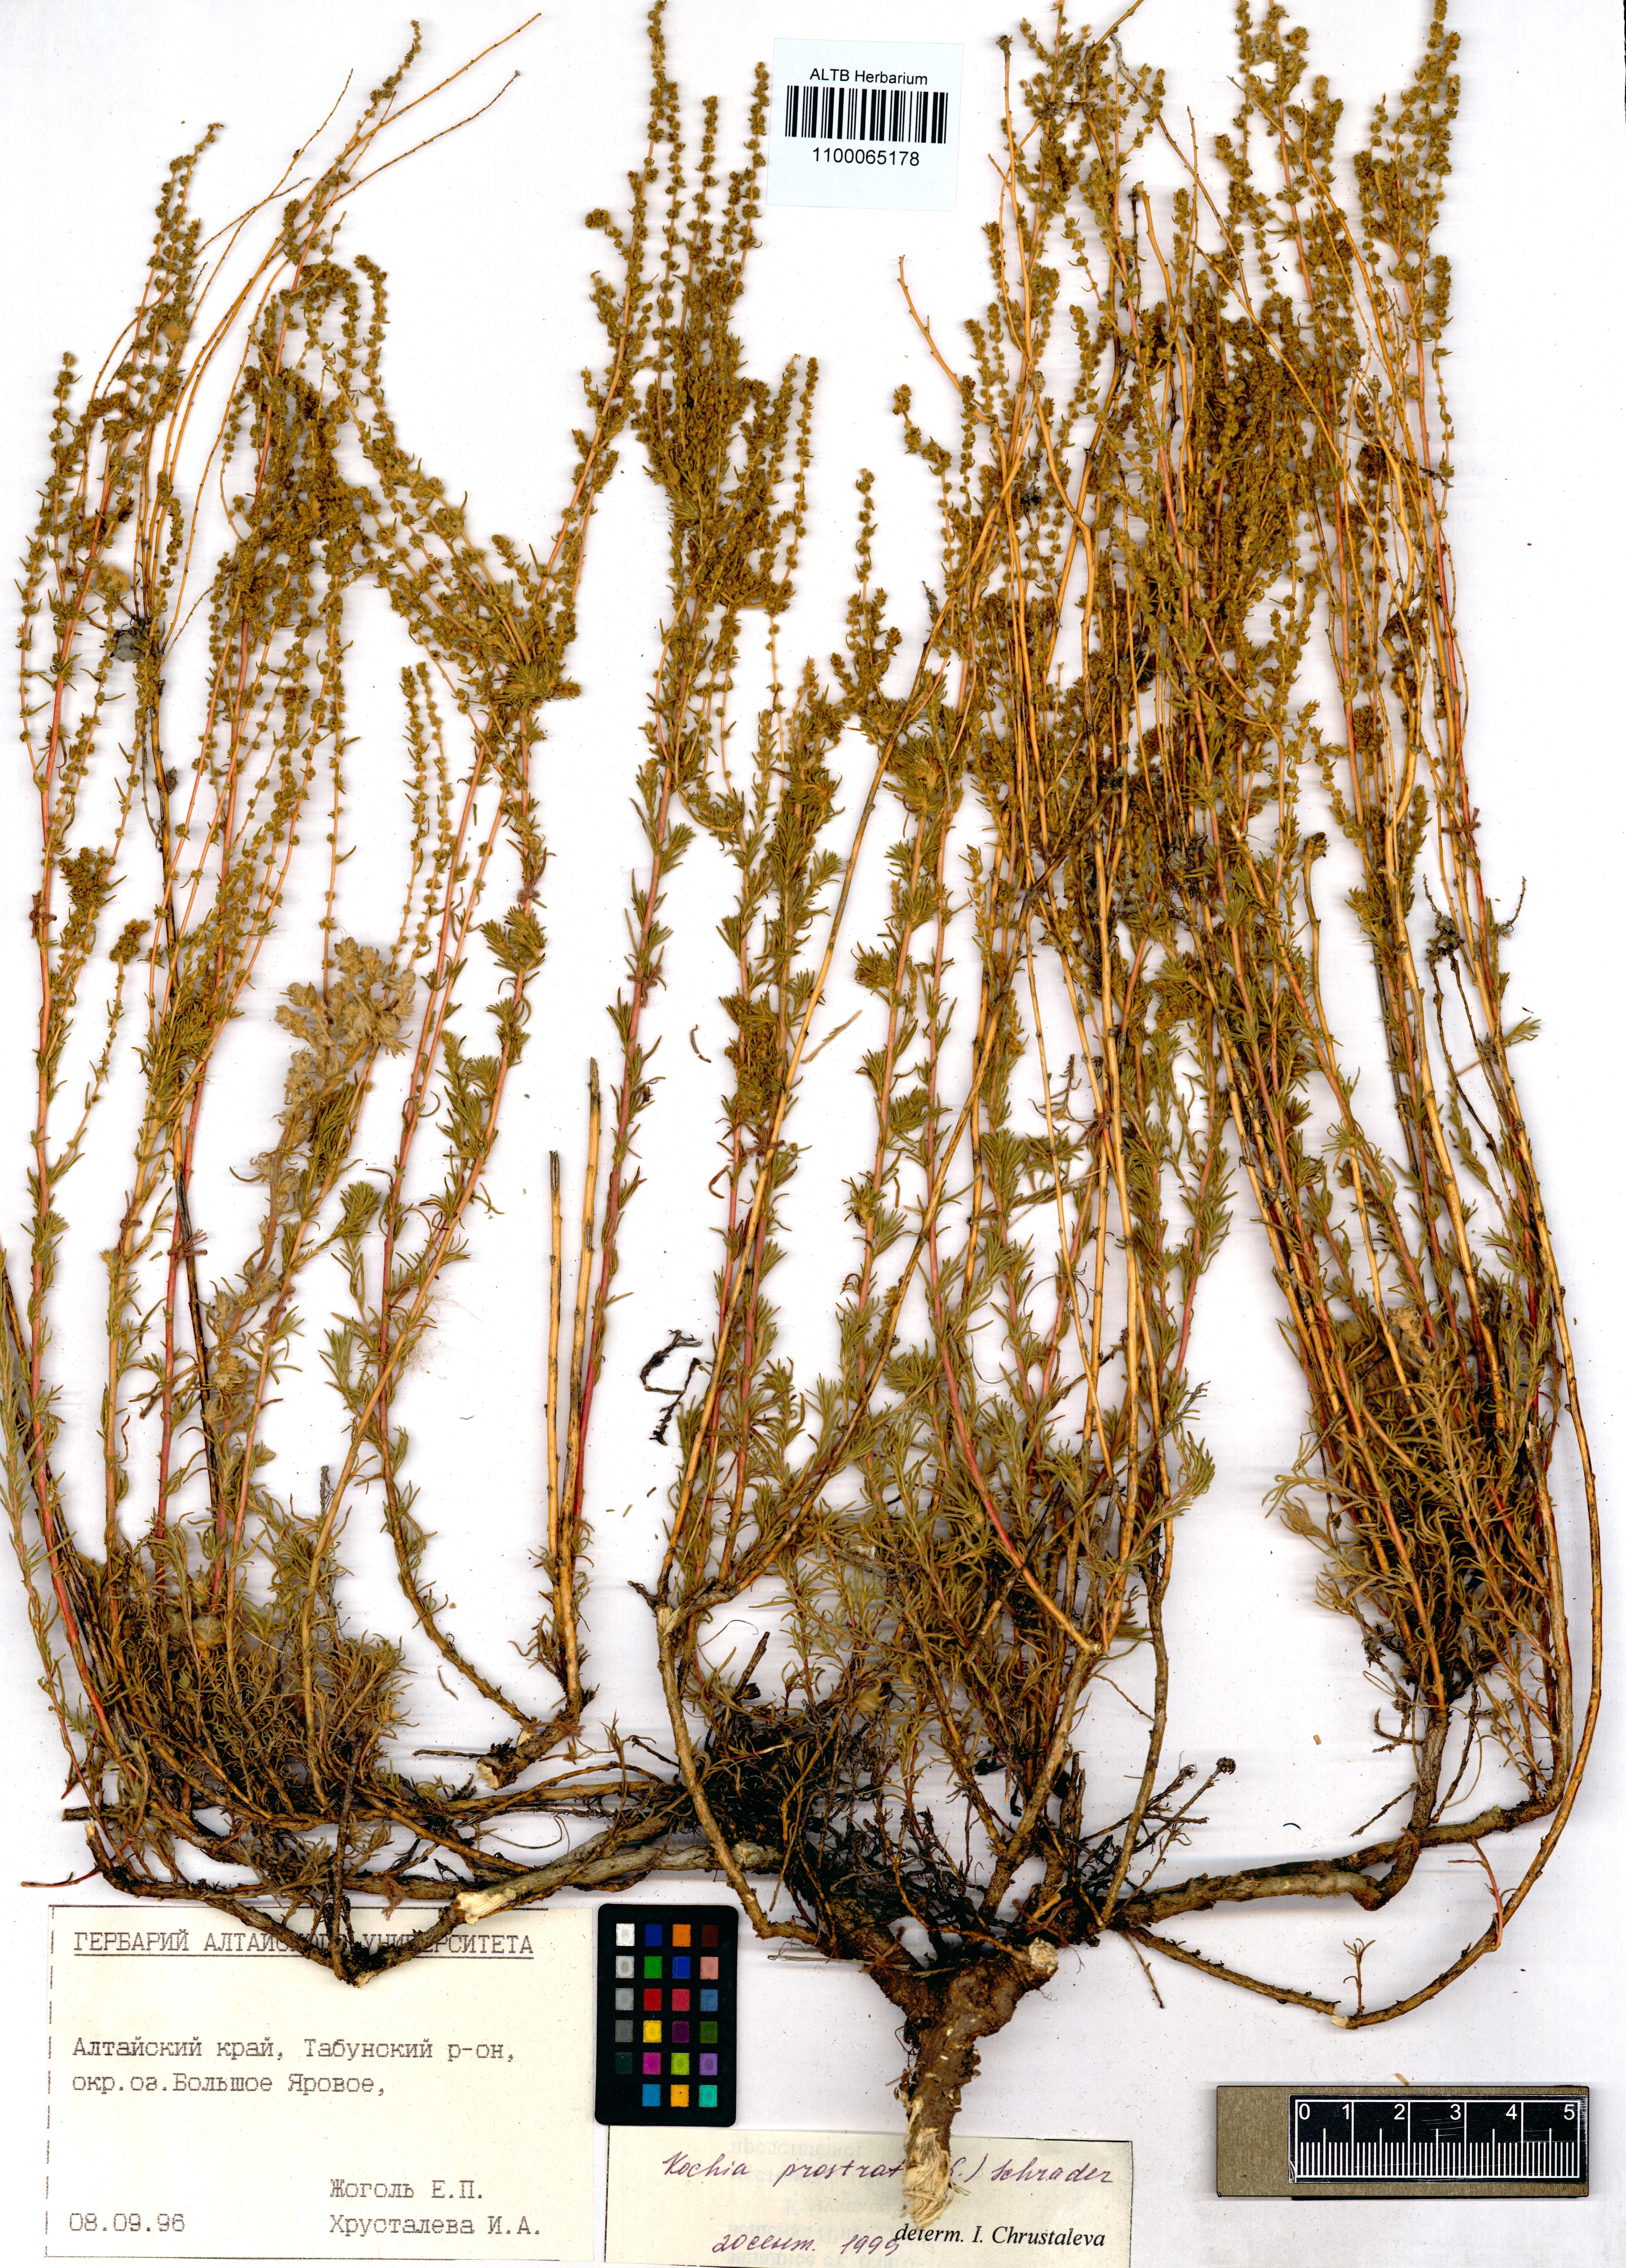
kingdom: Plantae
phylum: Tracheophyta
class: Magnoliopsida
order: Caryophyllales
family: Amaranthaceae
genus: Bassia
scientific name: Bassia prostrata
